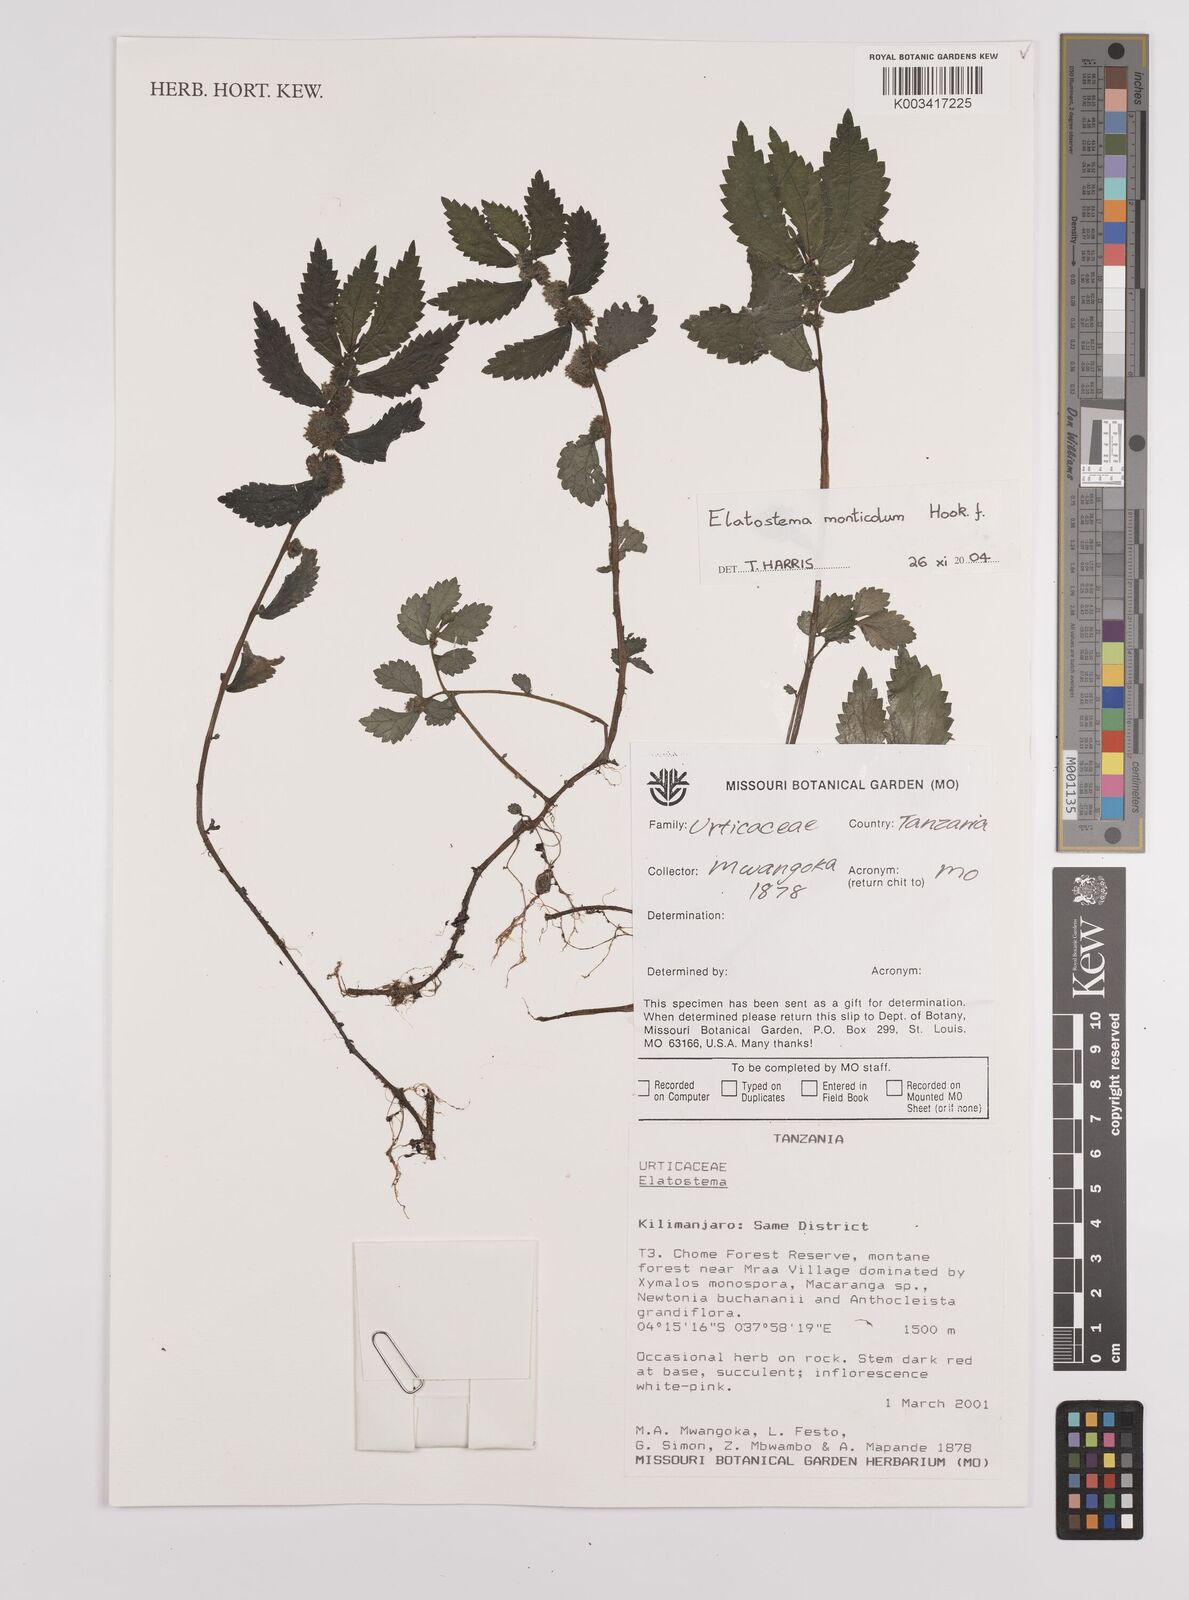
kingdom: Plantae
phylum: Tracheophyta
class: Magnoliopsida
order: Rosales
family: Urticaceae
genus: Elatostema
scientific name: Elatostema monticola
